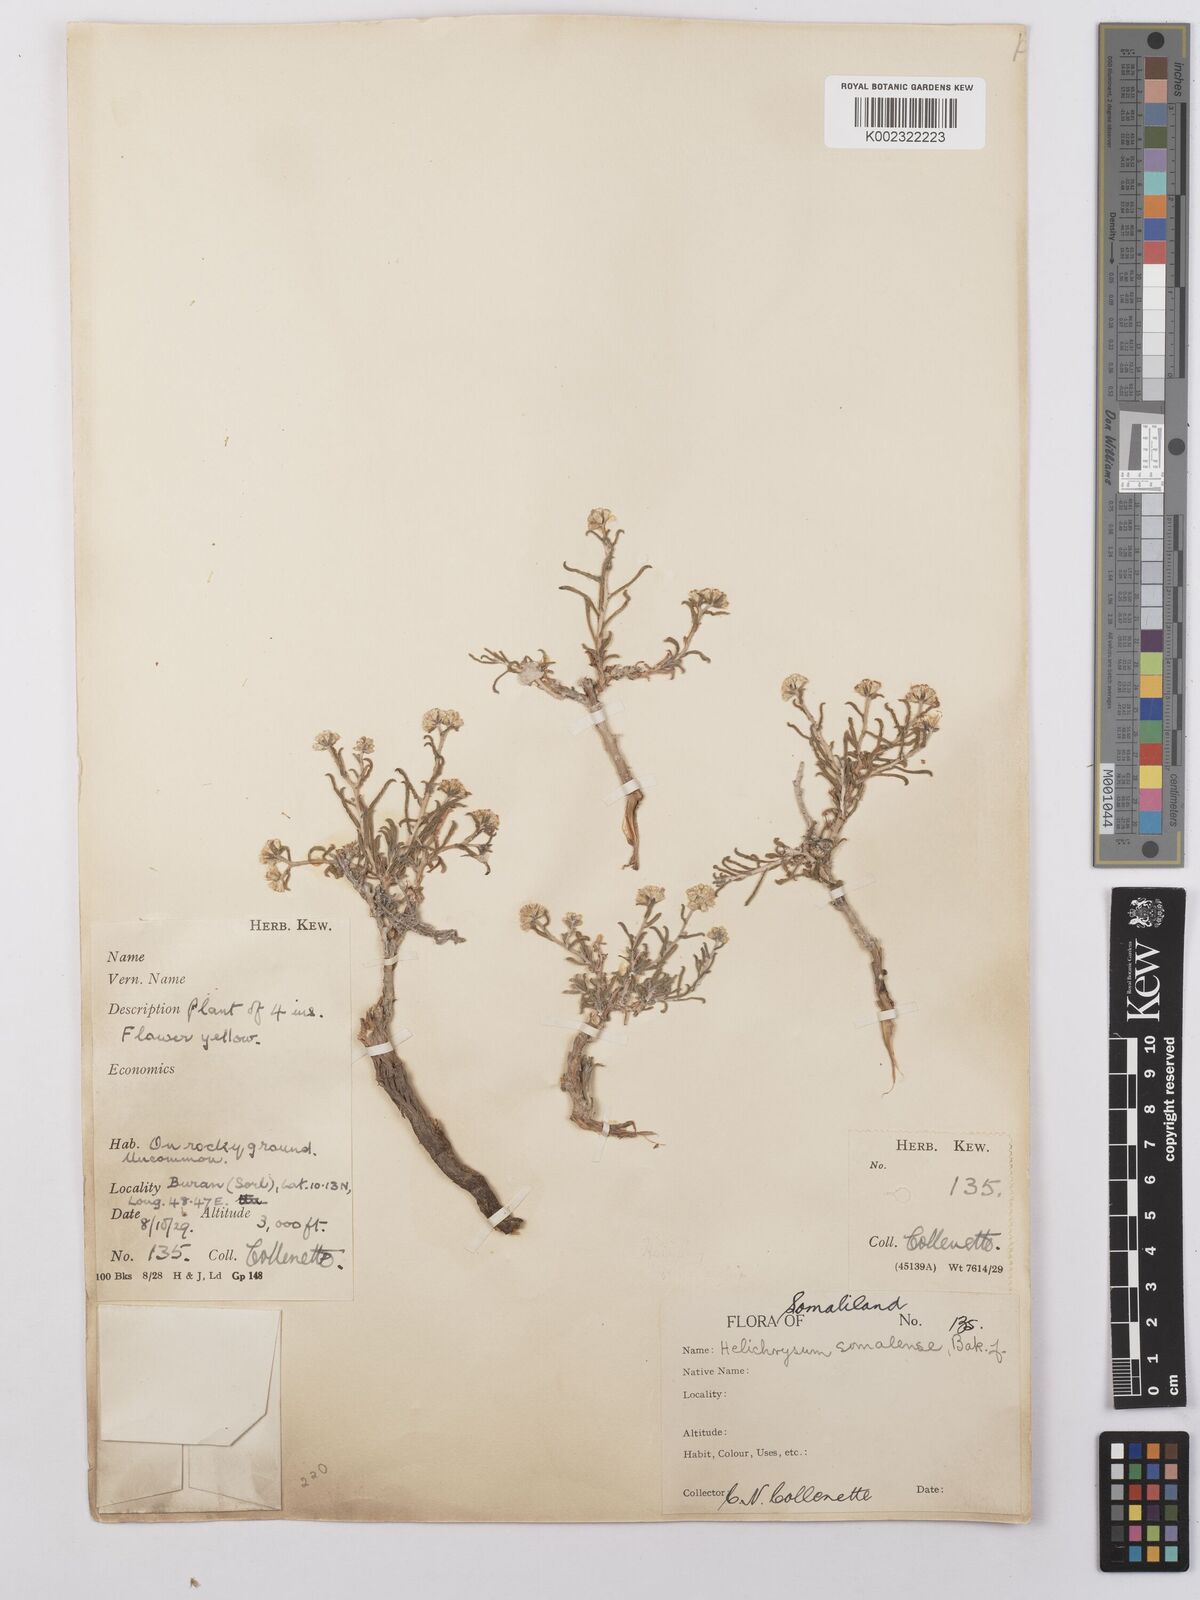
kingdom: Plantae
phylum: Tracheophyta
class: Magnoliopsida
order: Asterales
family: Asteraceae
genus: Helichrysum
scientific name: Helichrysum pumilum
